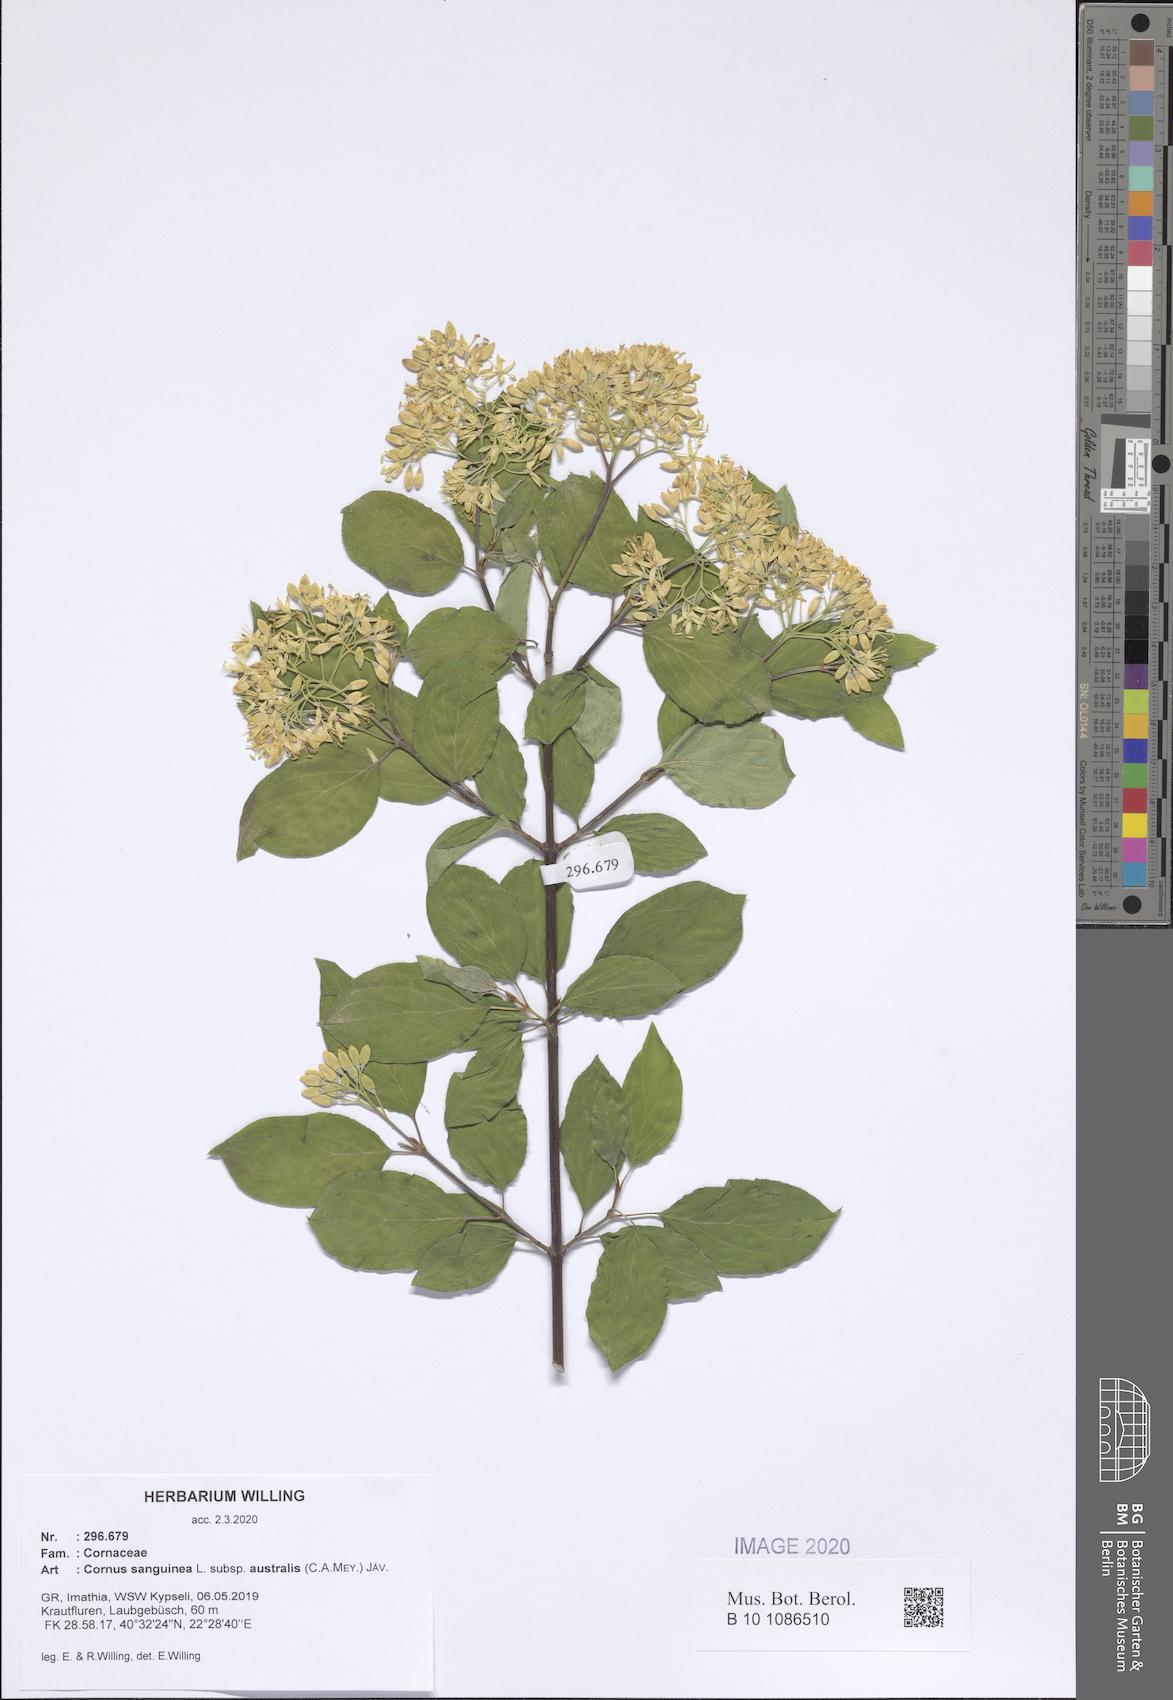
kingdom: Plantae
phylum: Tracheophyta
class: Magnoliopsida
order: Cornales
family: Cornaceae
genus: Cornus
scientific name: Cornus sanguinea
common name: Dogwood
